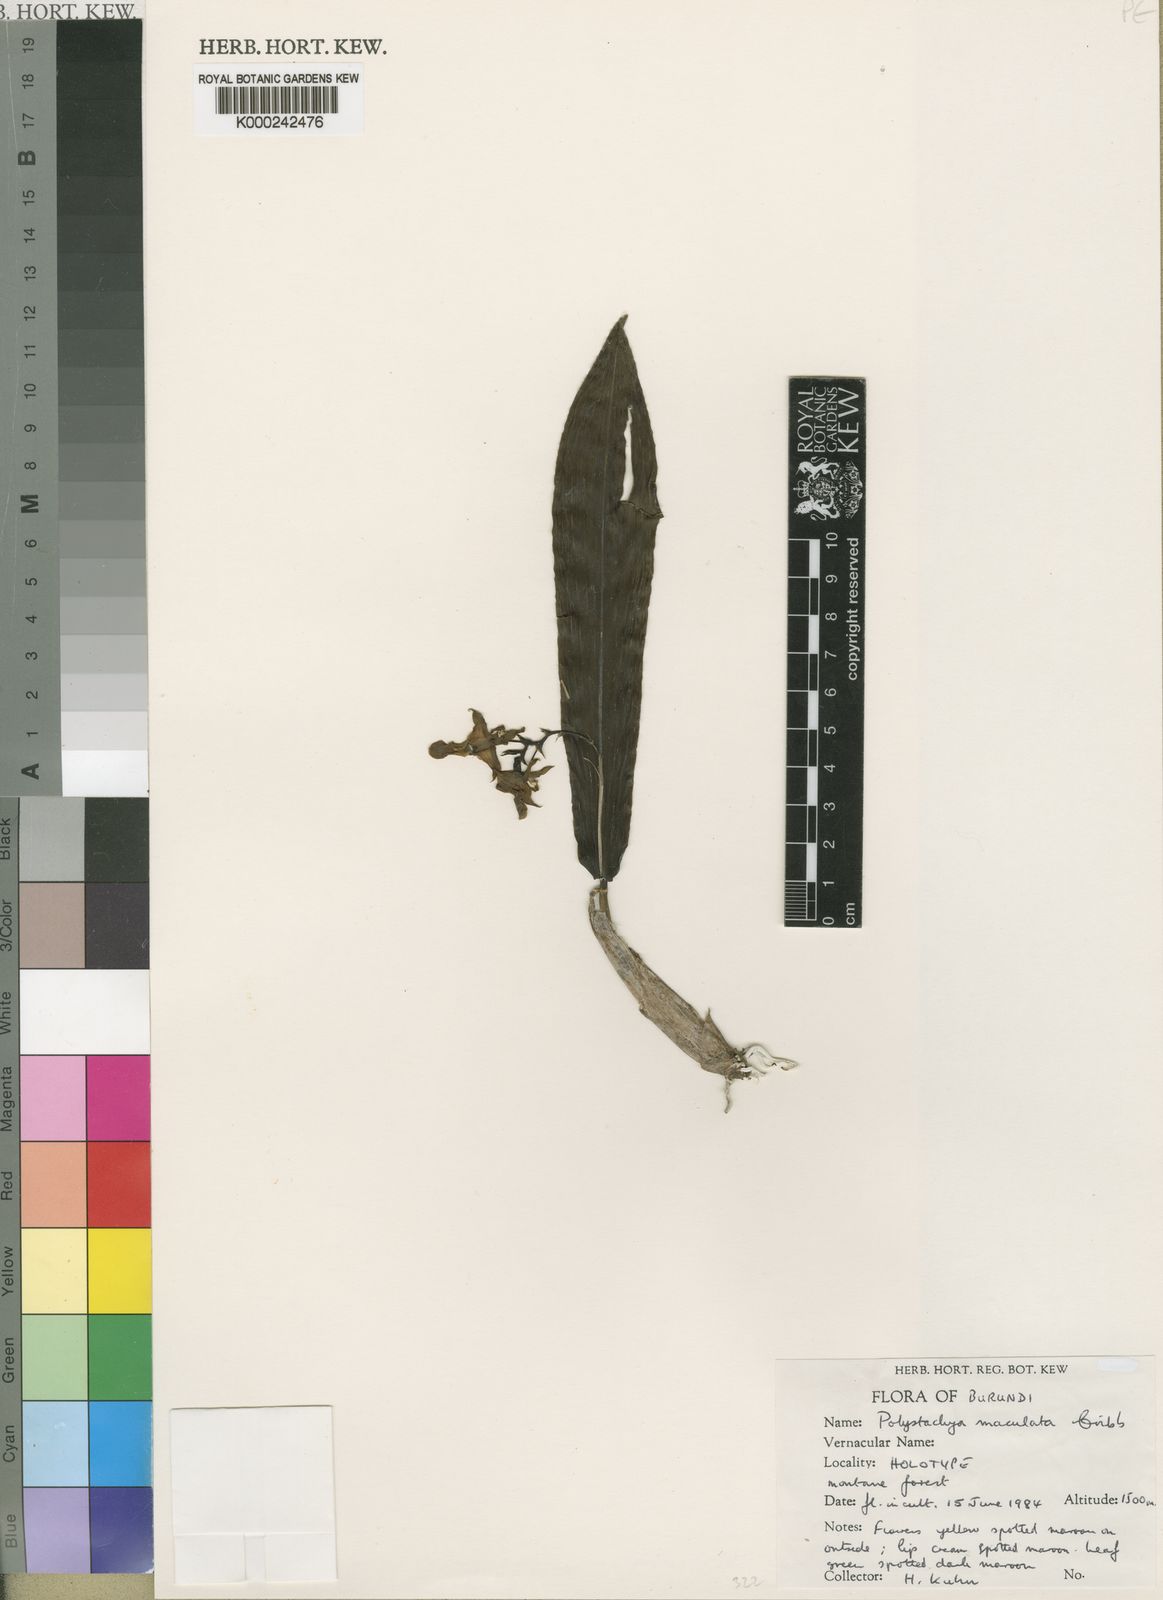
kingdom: Plantae
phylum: Tracheophyta
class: Liliopsida
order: Asparagales
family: Orchidaceae
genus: Polystachya
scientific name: Polystachya maculata
